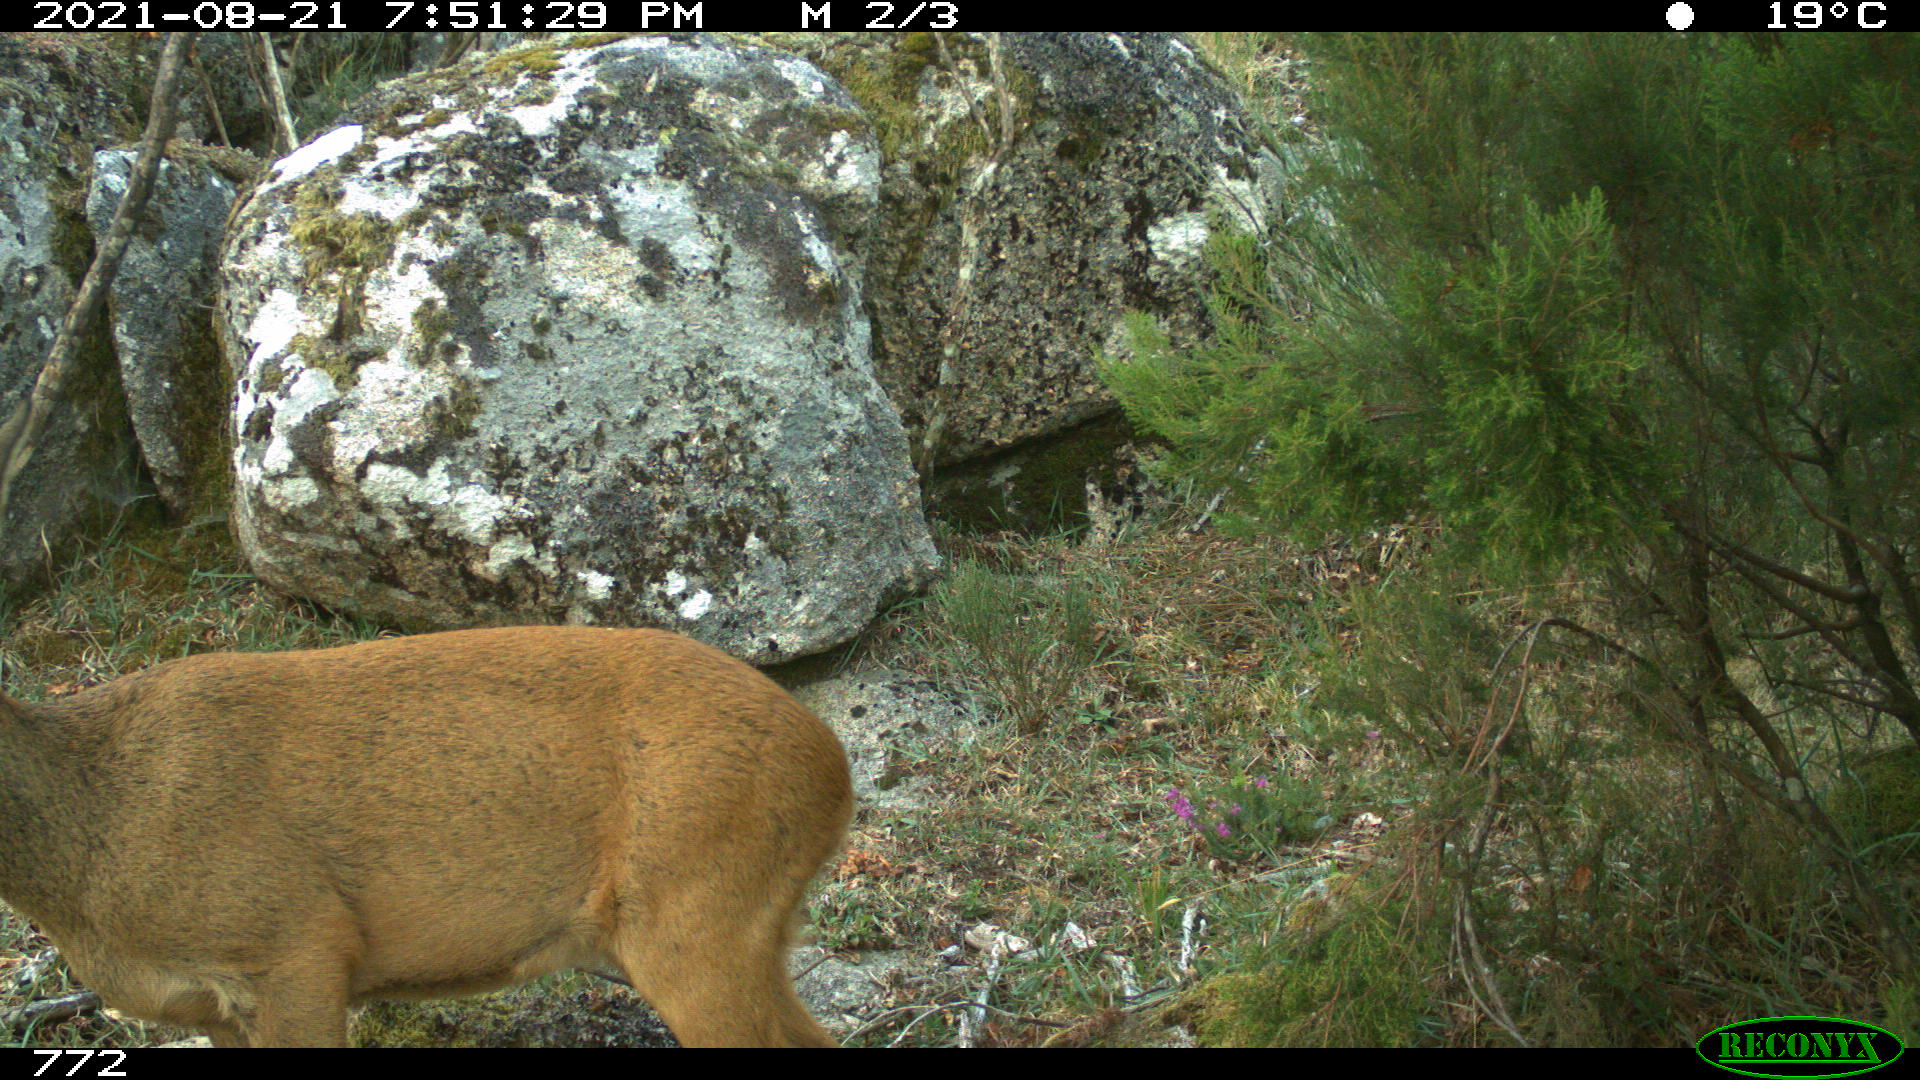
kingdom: Animalia
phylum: Chordata
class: Mammalia
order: Artiodactyla
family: Cervidae
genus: Capreolus
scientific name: Capreolus capreolus
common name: Western roe deer
